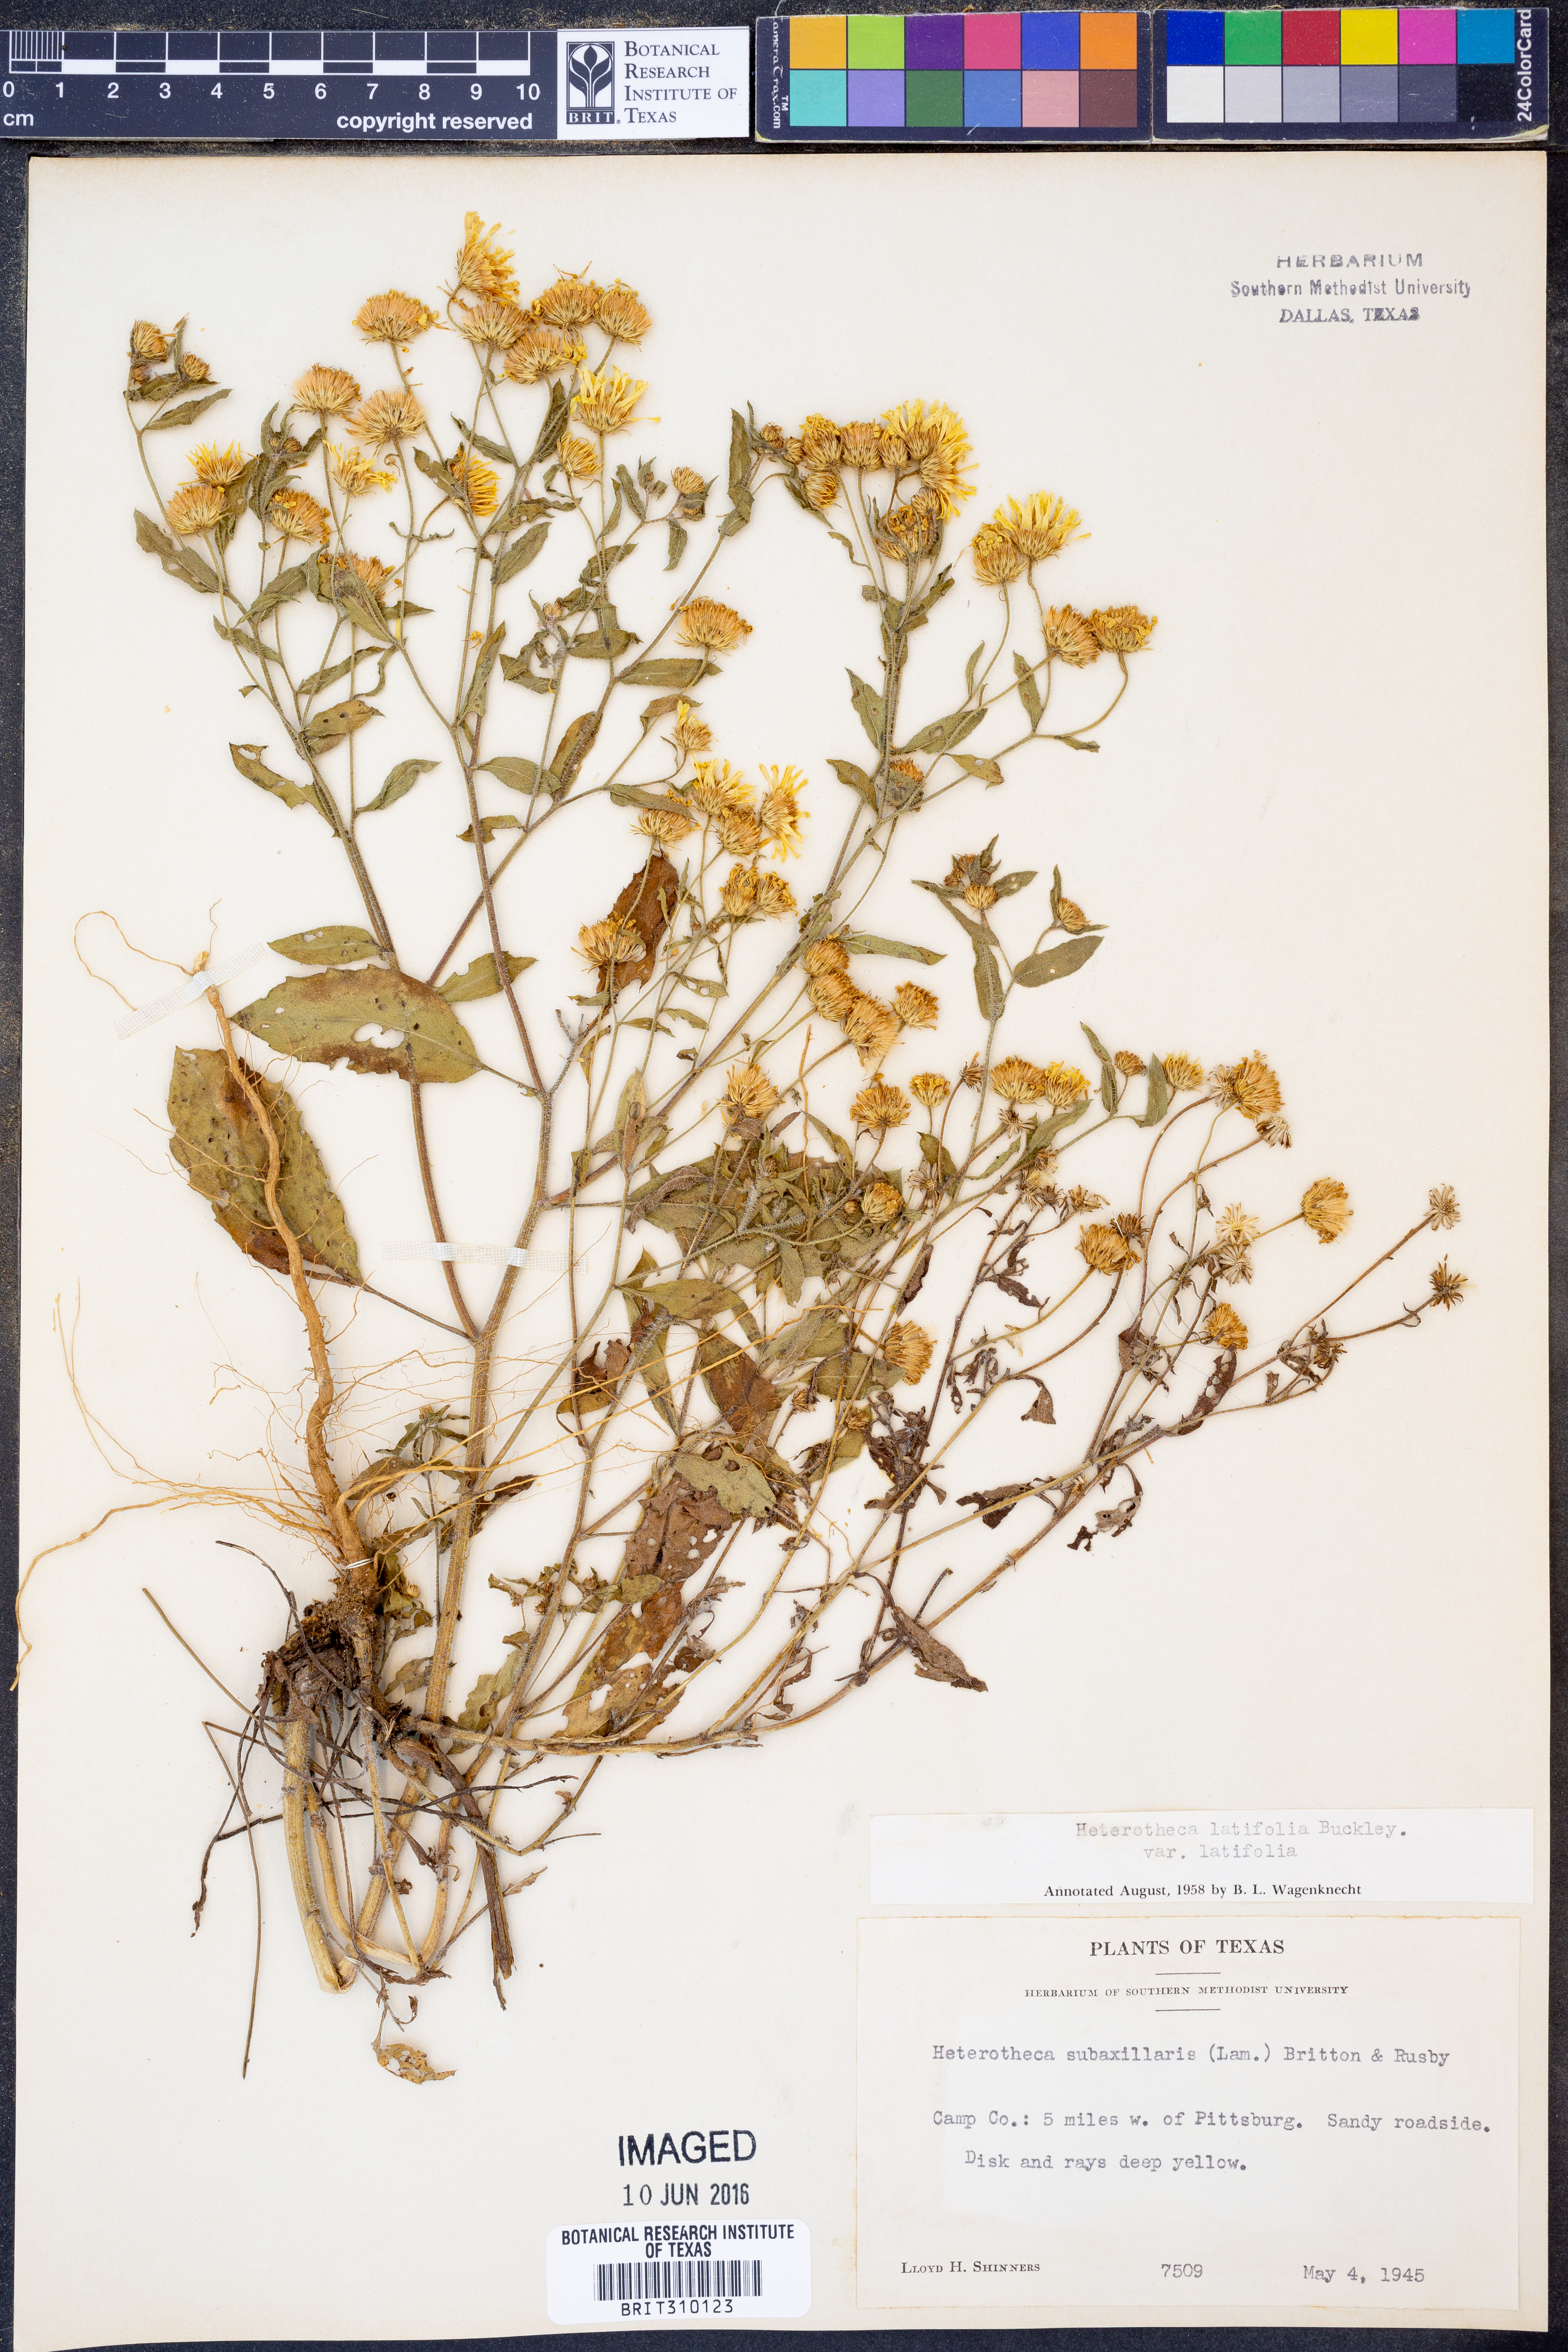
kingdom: Plantae
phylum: Tracheophyta
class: Magnoliopsida
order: Asterales
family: Asteraceae
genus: Heterotheca
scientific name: Heterotheca subaxillaris
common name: Camphorweed
